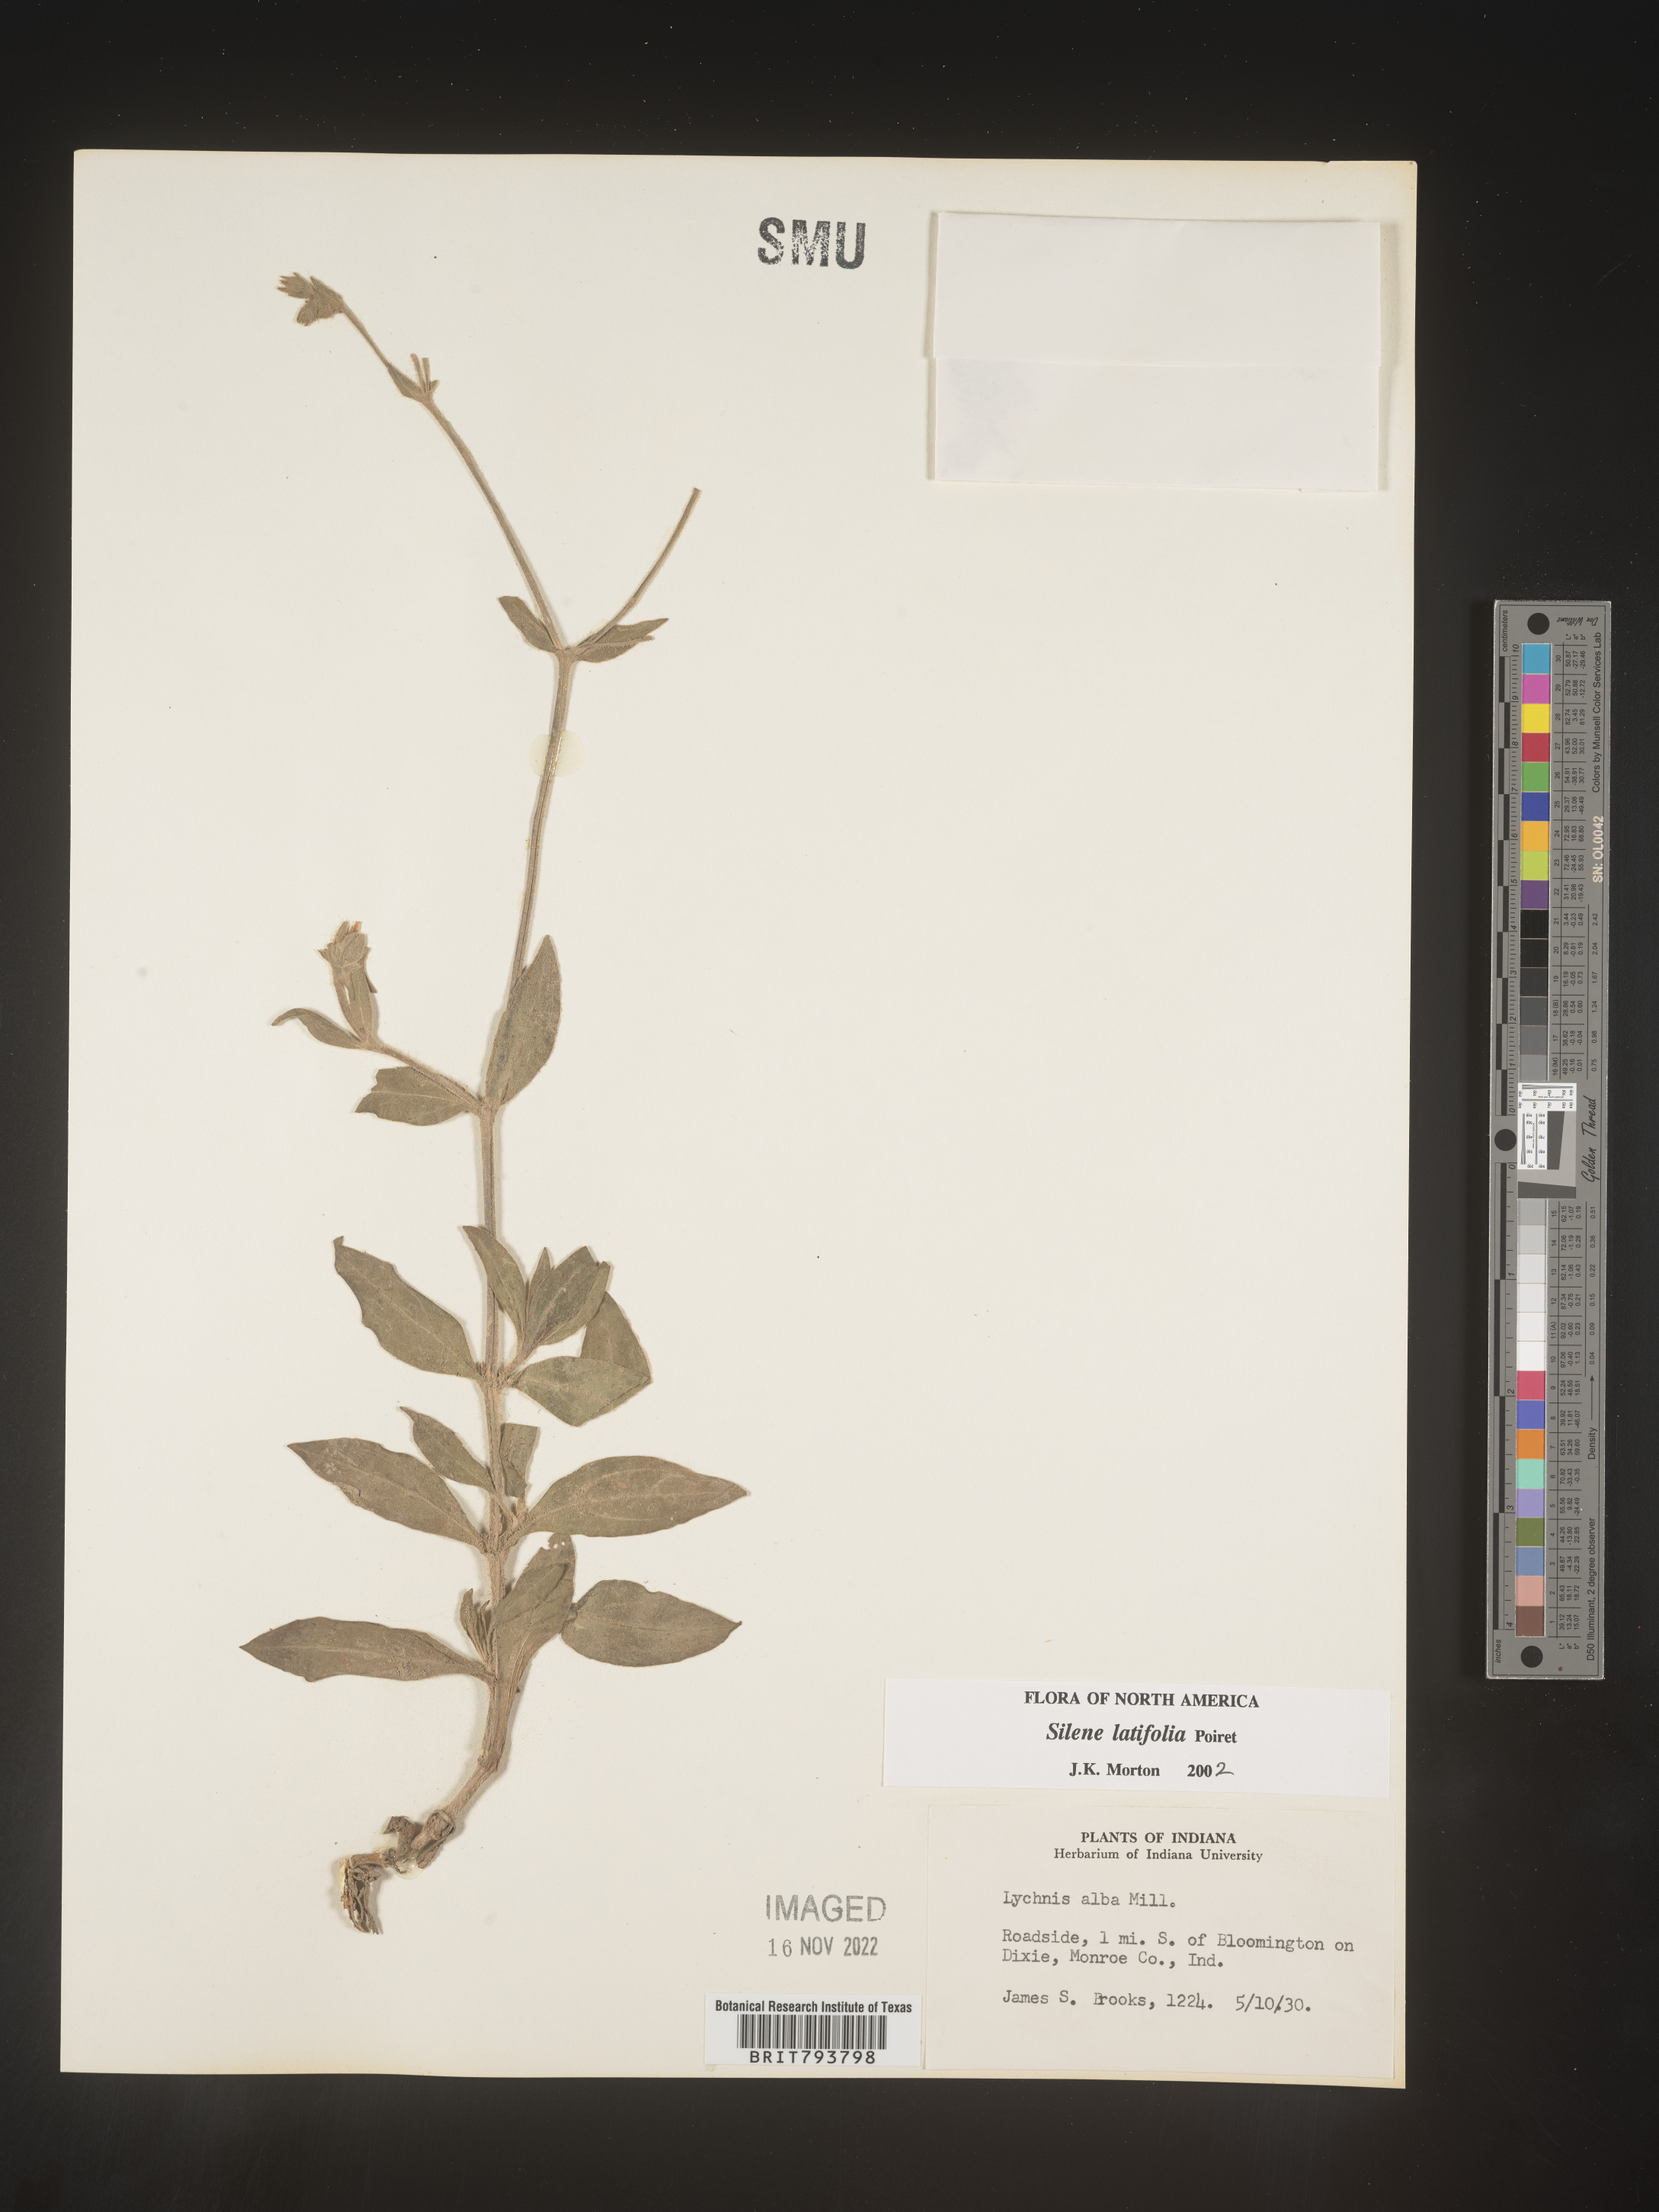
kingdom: Plantae
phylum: Tracheophyta
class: Magnoliopsida
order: Caryophyllales
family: Caryophyllaceae
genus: Silene
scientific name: Silene latifolia
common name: White campion
